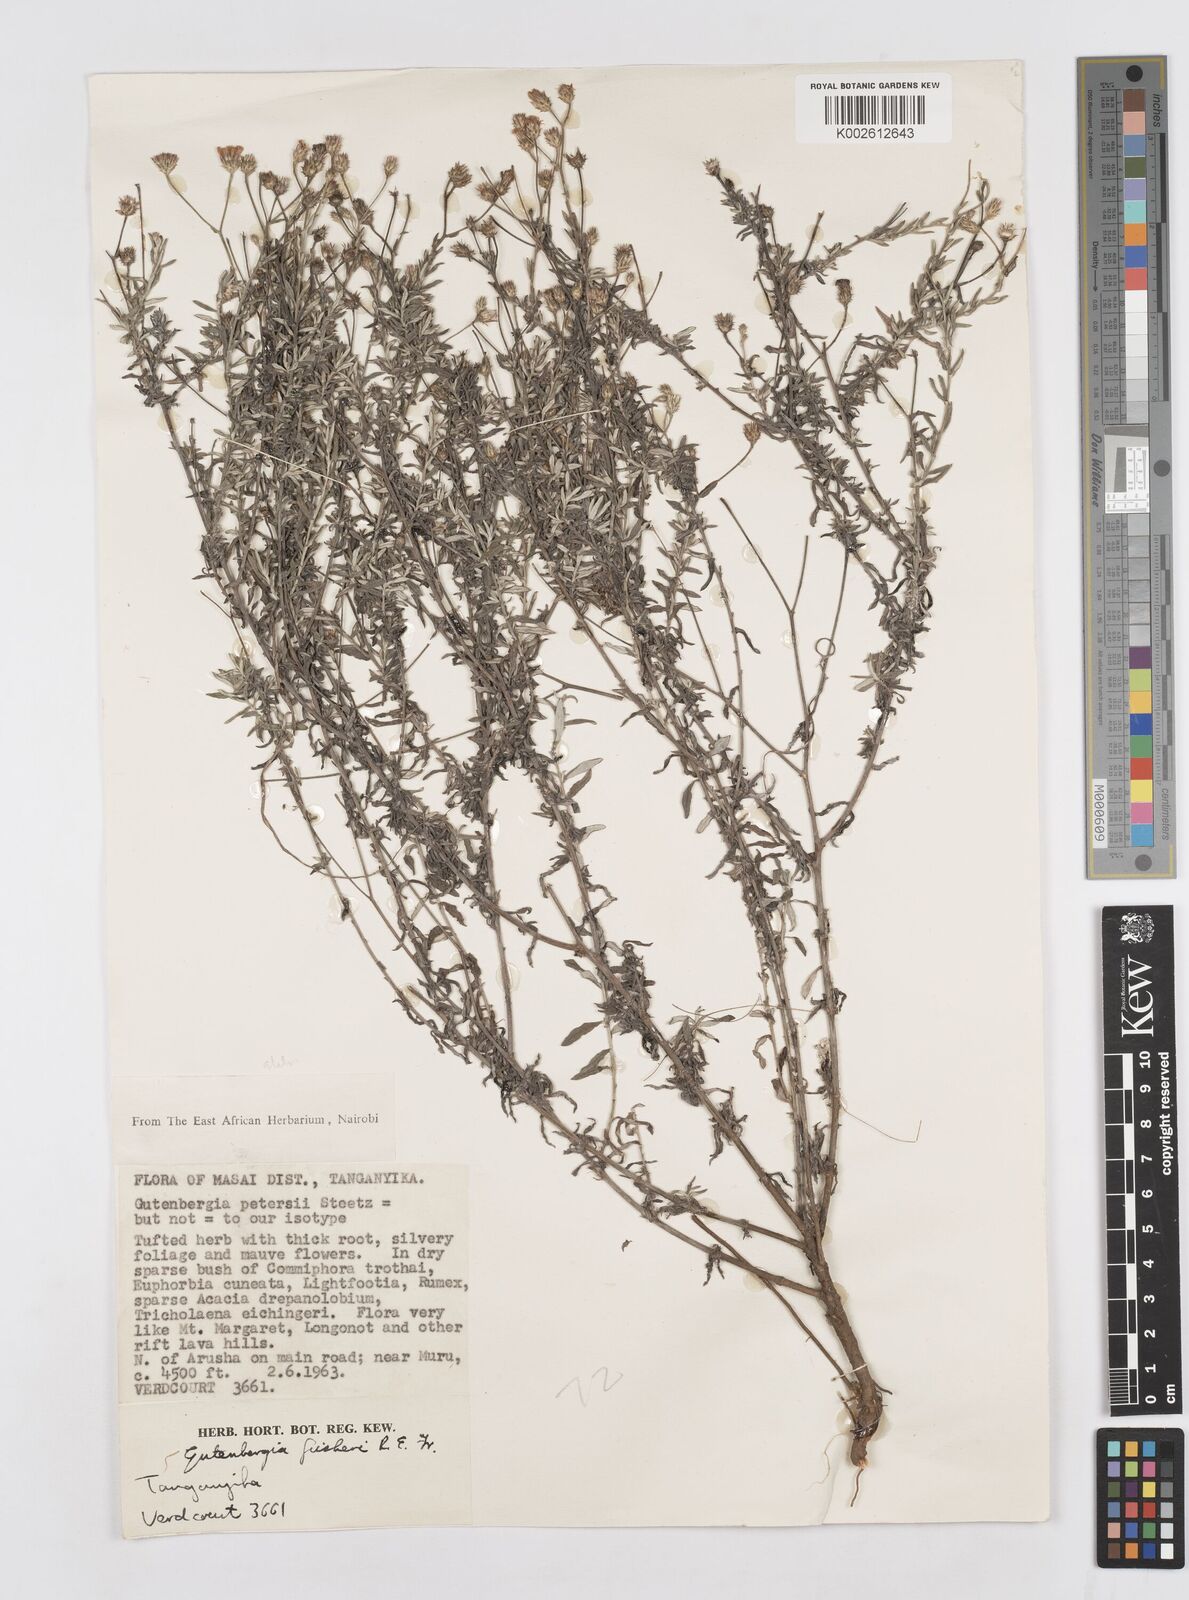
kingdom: Plantae
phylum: Tracheophyta
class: Magnoliopsida
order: Asterales
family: Asteraceae
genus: Gutenbergia
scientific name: Gutenbergia rueppellii
